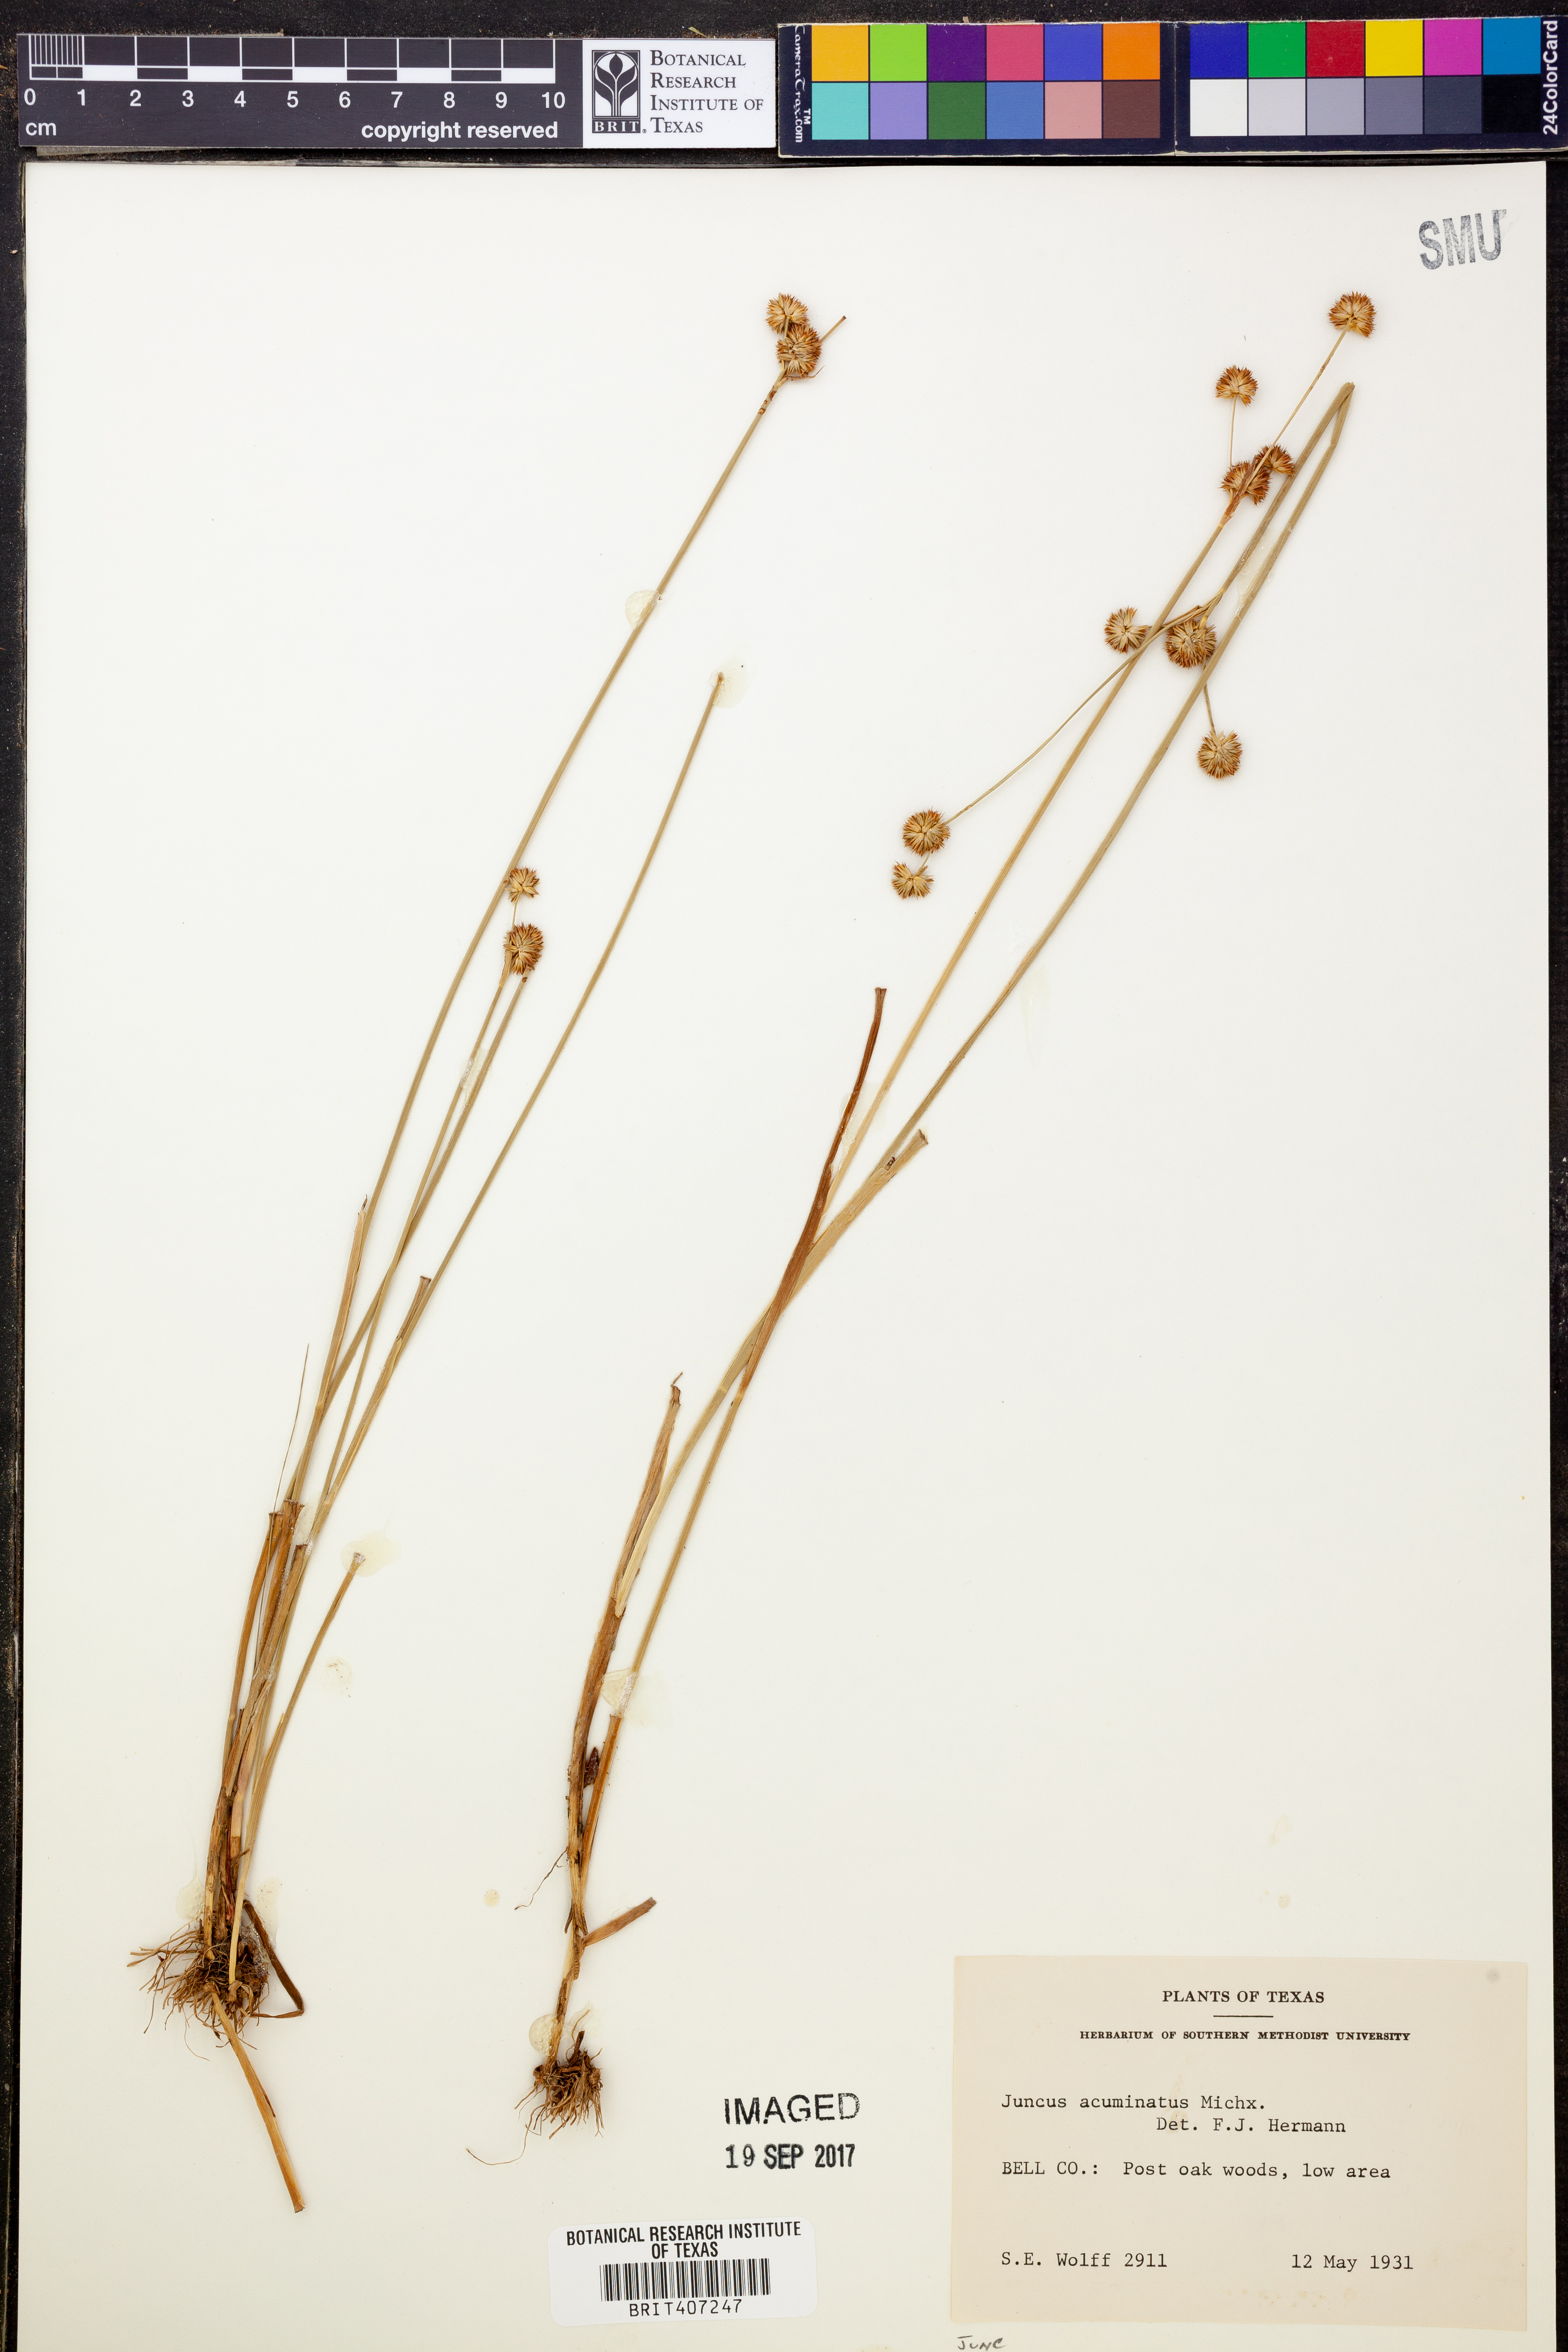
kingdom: Plantae
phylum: Tracheophyta
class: Liliopsida
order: Poales
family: Juncaceae
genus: Juncus
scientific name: Juncus acuminatus
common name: Knotty-leaved rush
